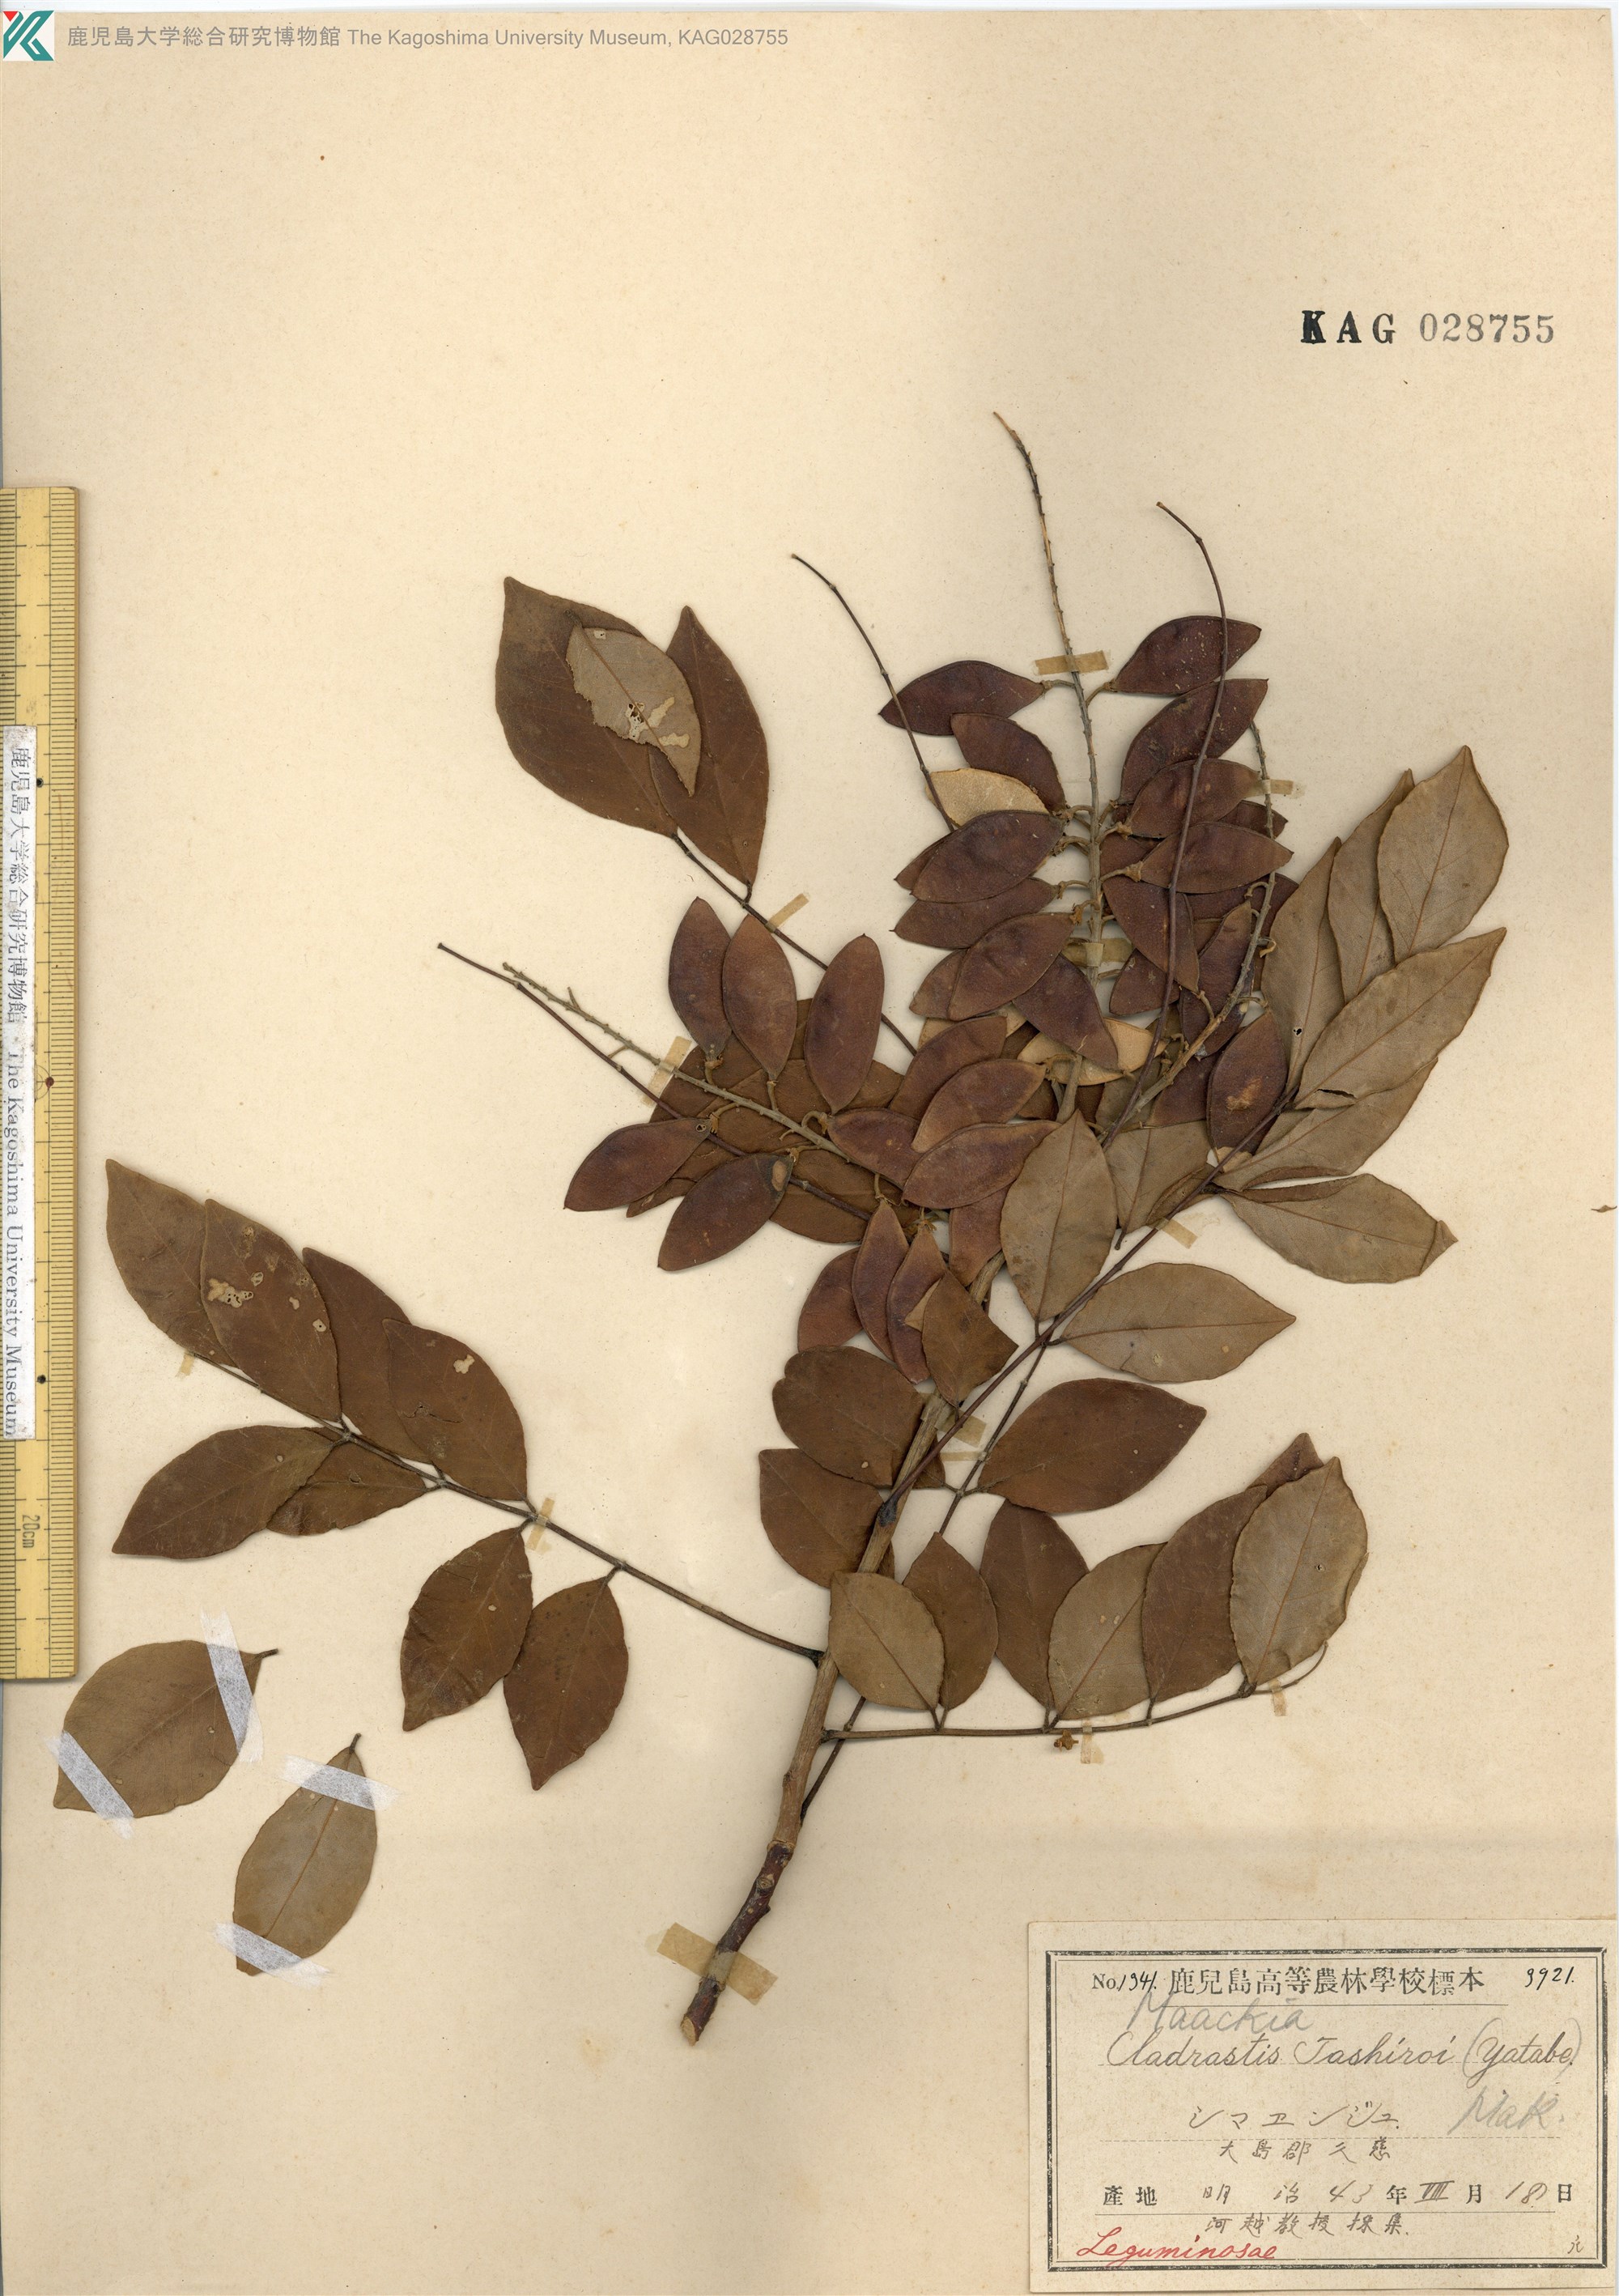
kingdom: Plantae
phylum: Tracheophyta
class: Magnoliopsida
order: Fabales
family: Fabaceae
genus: Maackia
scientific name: Maackia tashiroi
